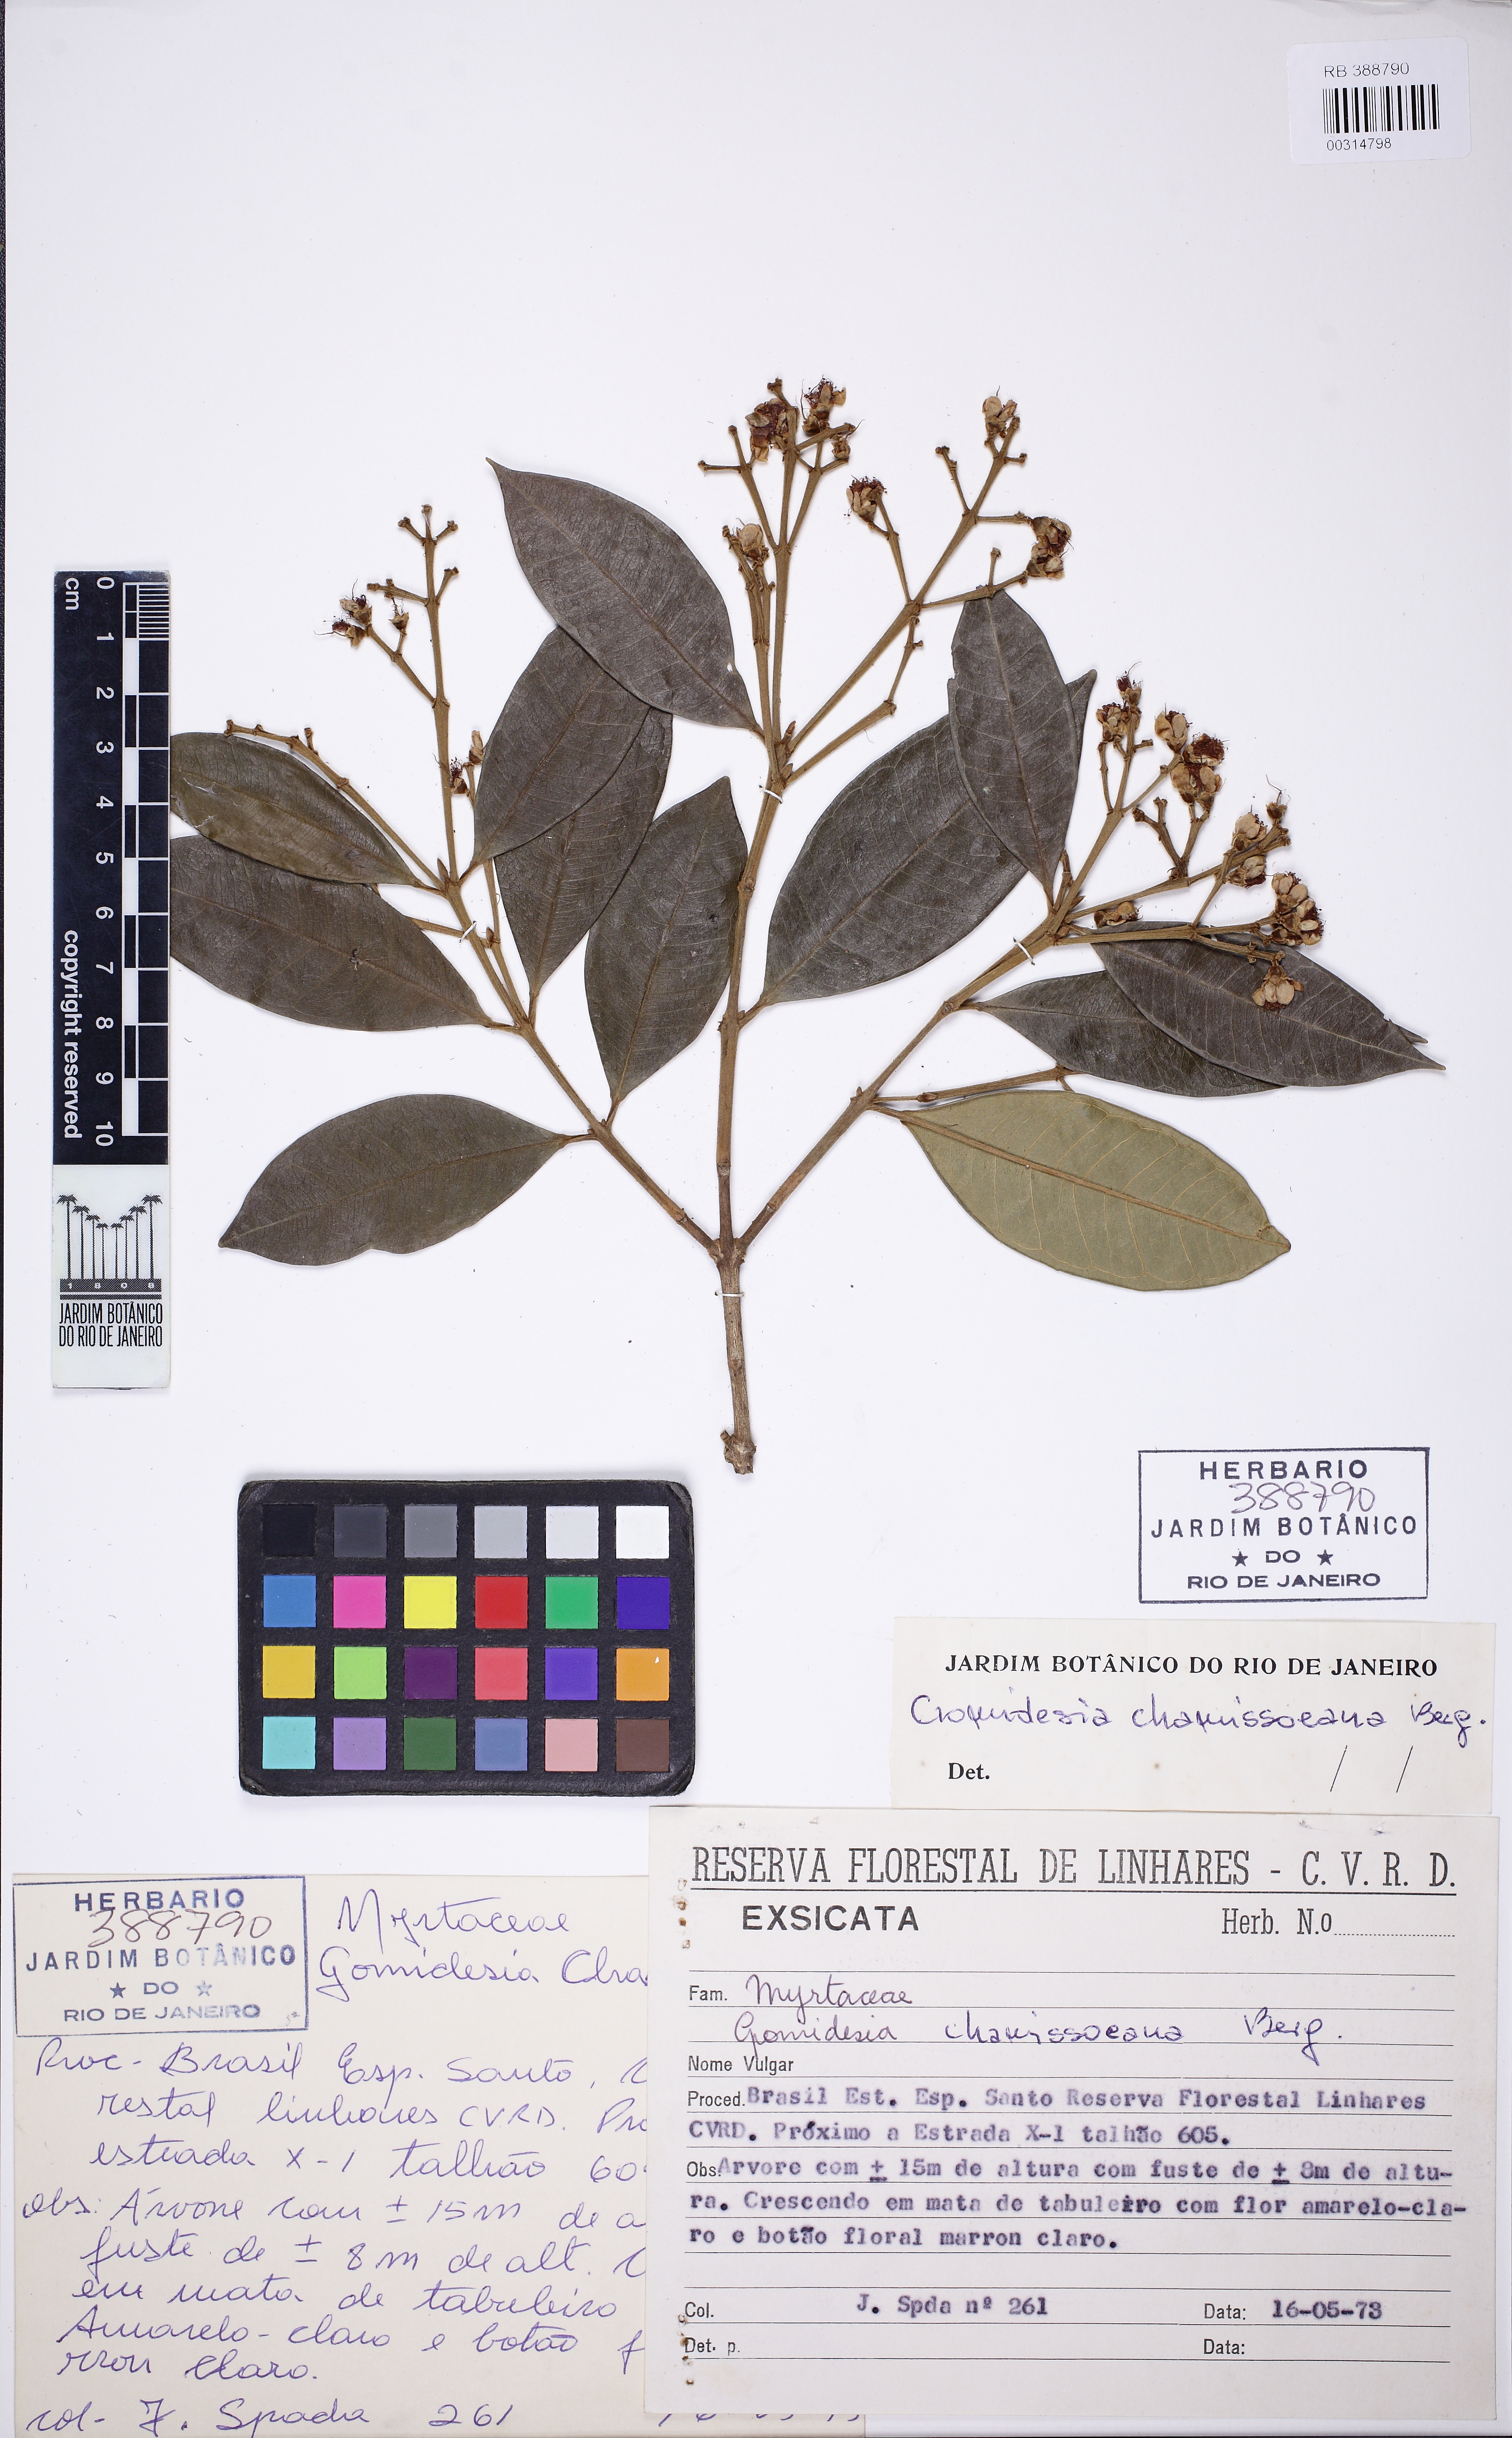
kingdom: Plantae
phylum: Tracheophyta
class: Magnoliopsida
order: Myrtales
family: Myrtaceae
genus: Myrcia
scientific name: Myrcia
